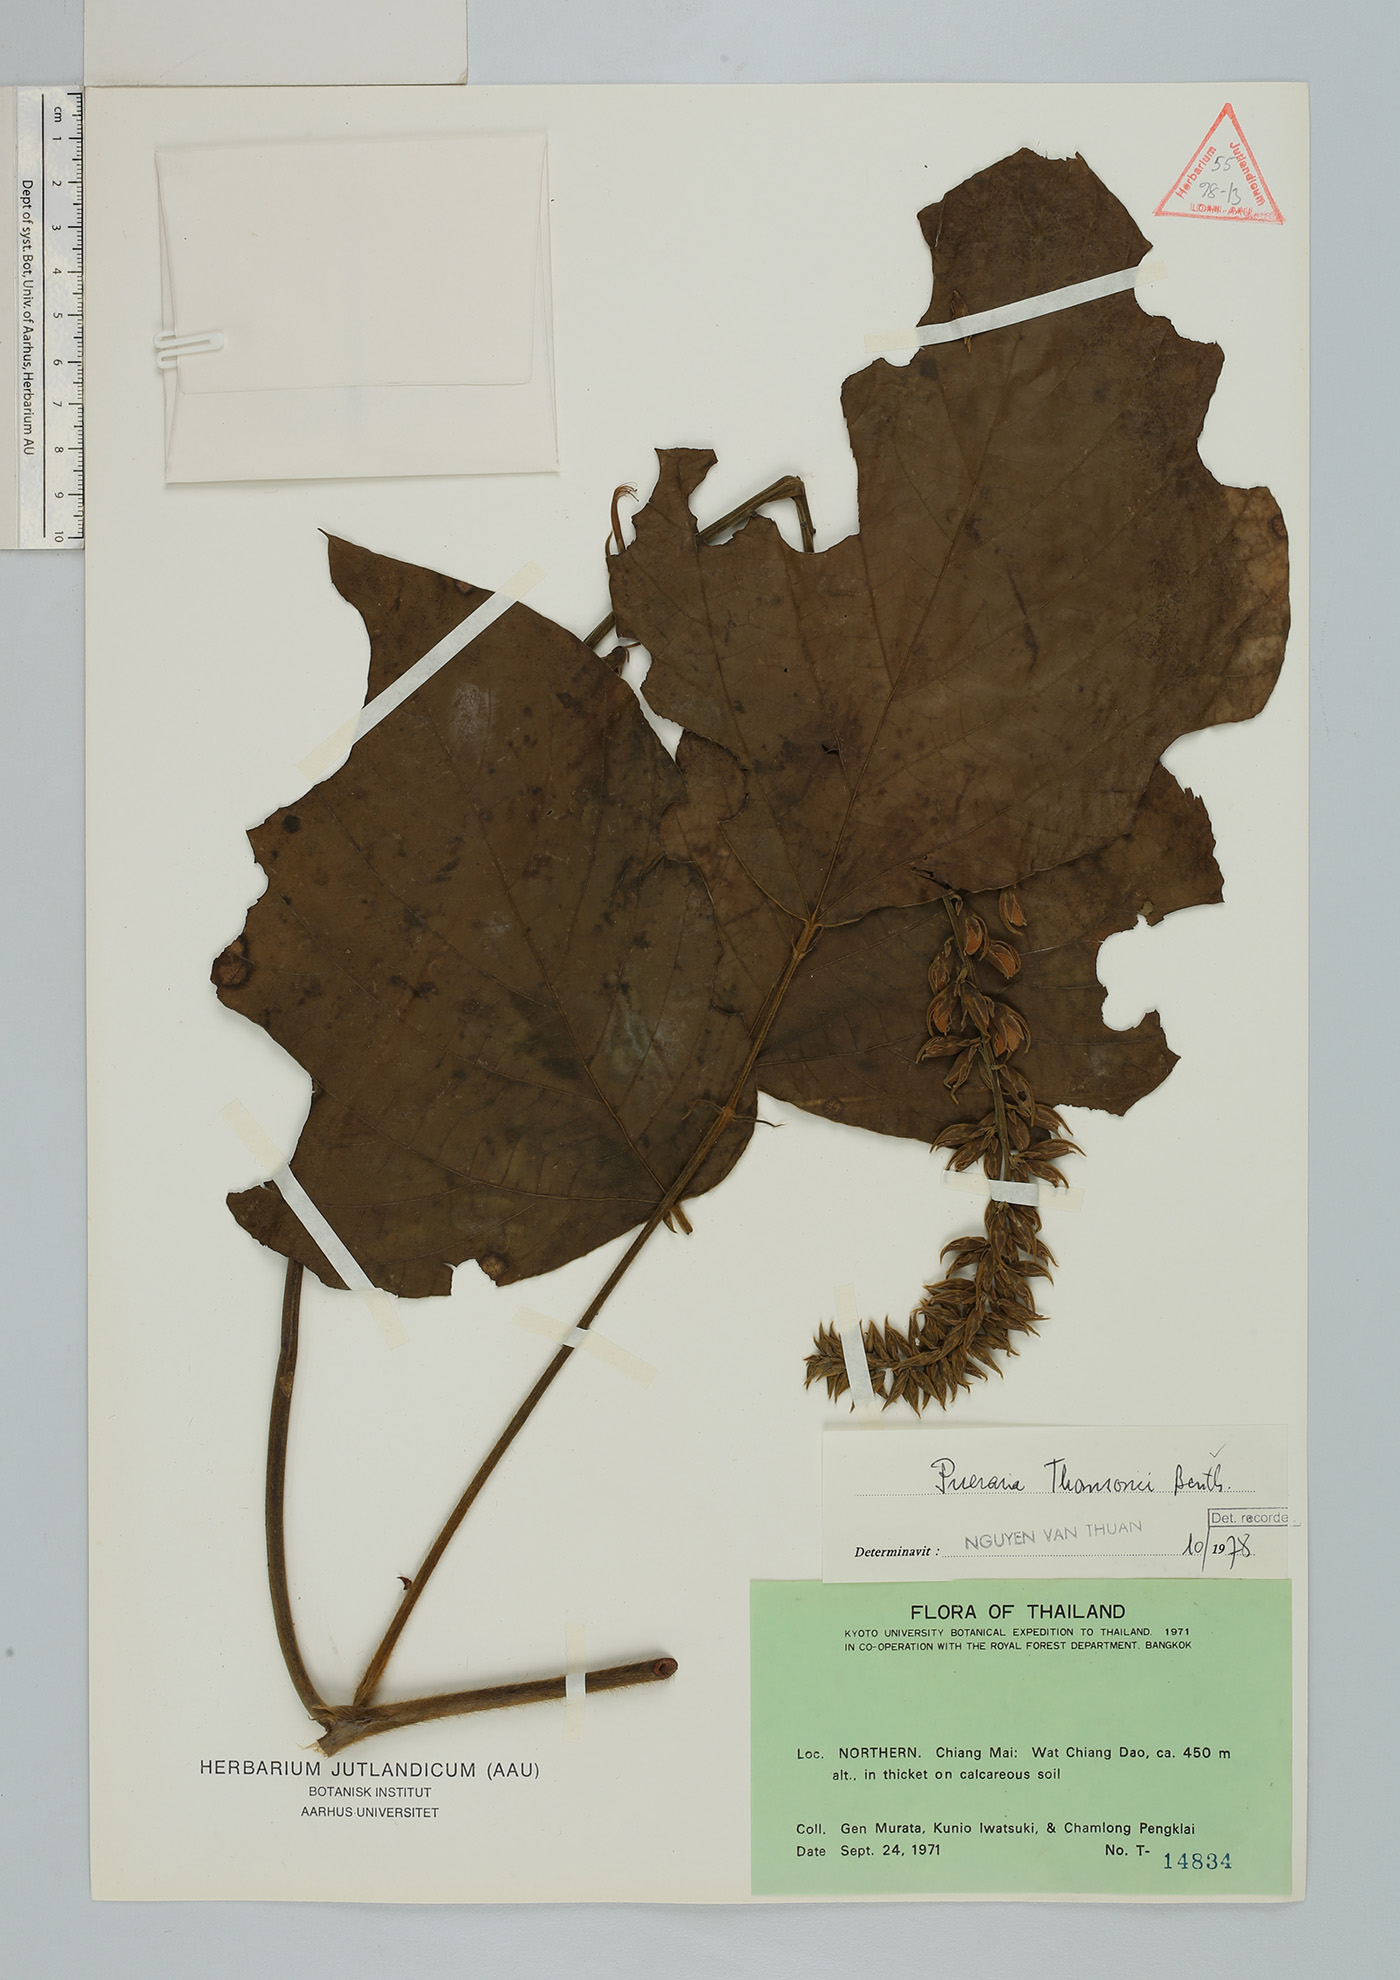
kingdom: Plantae
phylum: Tracheophyta
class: Magnoliopsida
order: Fabales
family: Fabaceae
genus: Pueraria
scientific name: Pueraria montana
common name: Kudzu
